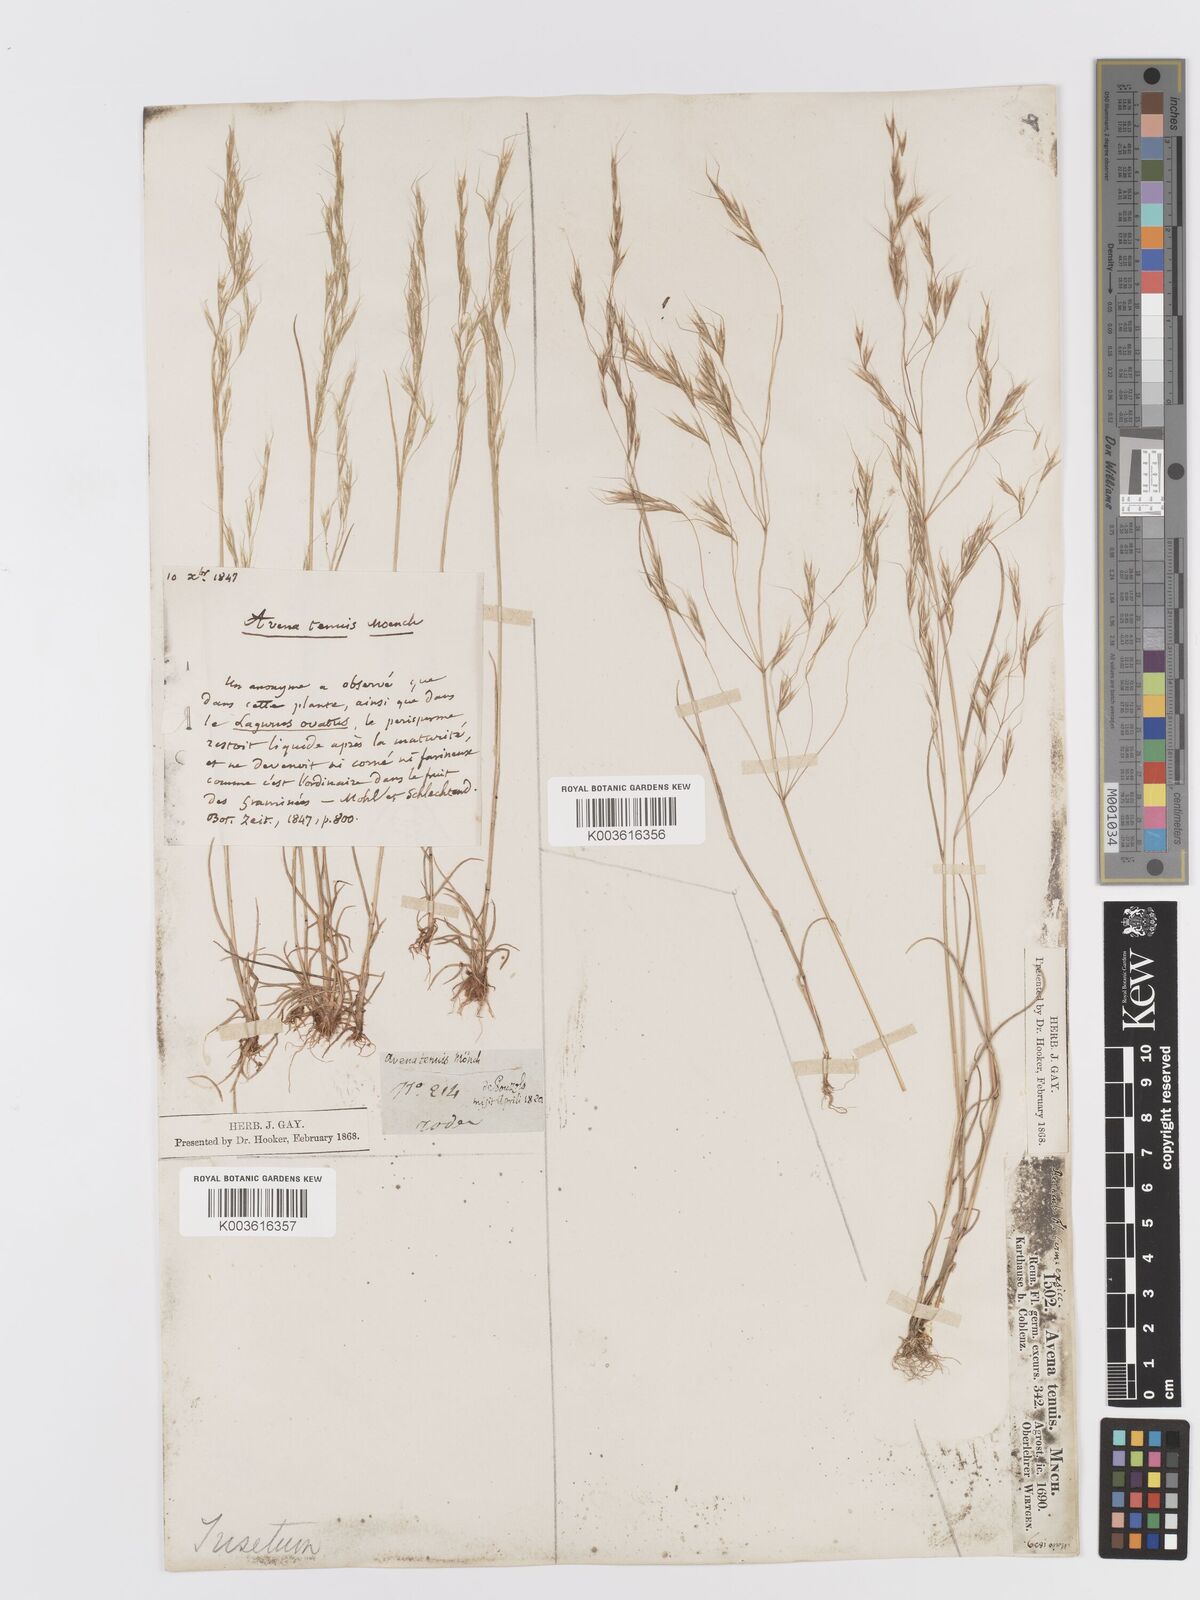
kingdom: Plantae
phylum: Tracheophyta
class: Liliopsida
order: Poales
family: Poaceae
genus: Ventenata
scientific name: Ventenata dubia
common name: North africa grass
